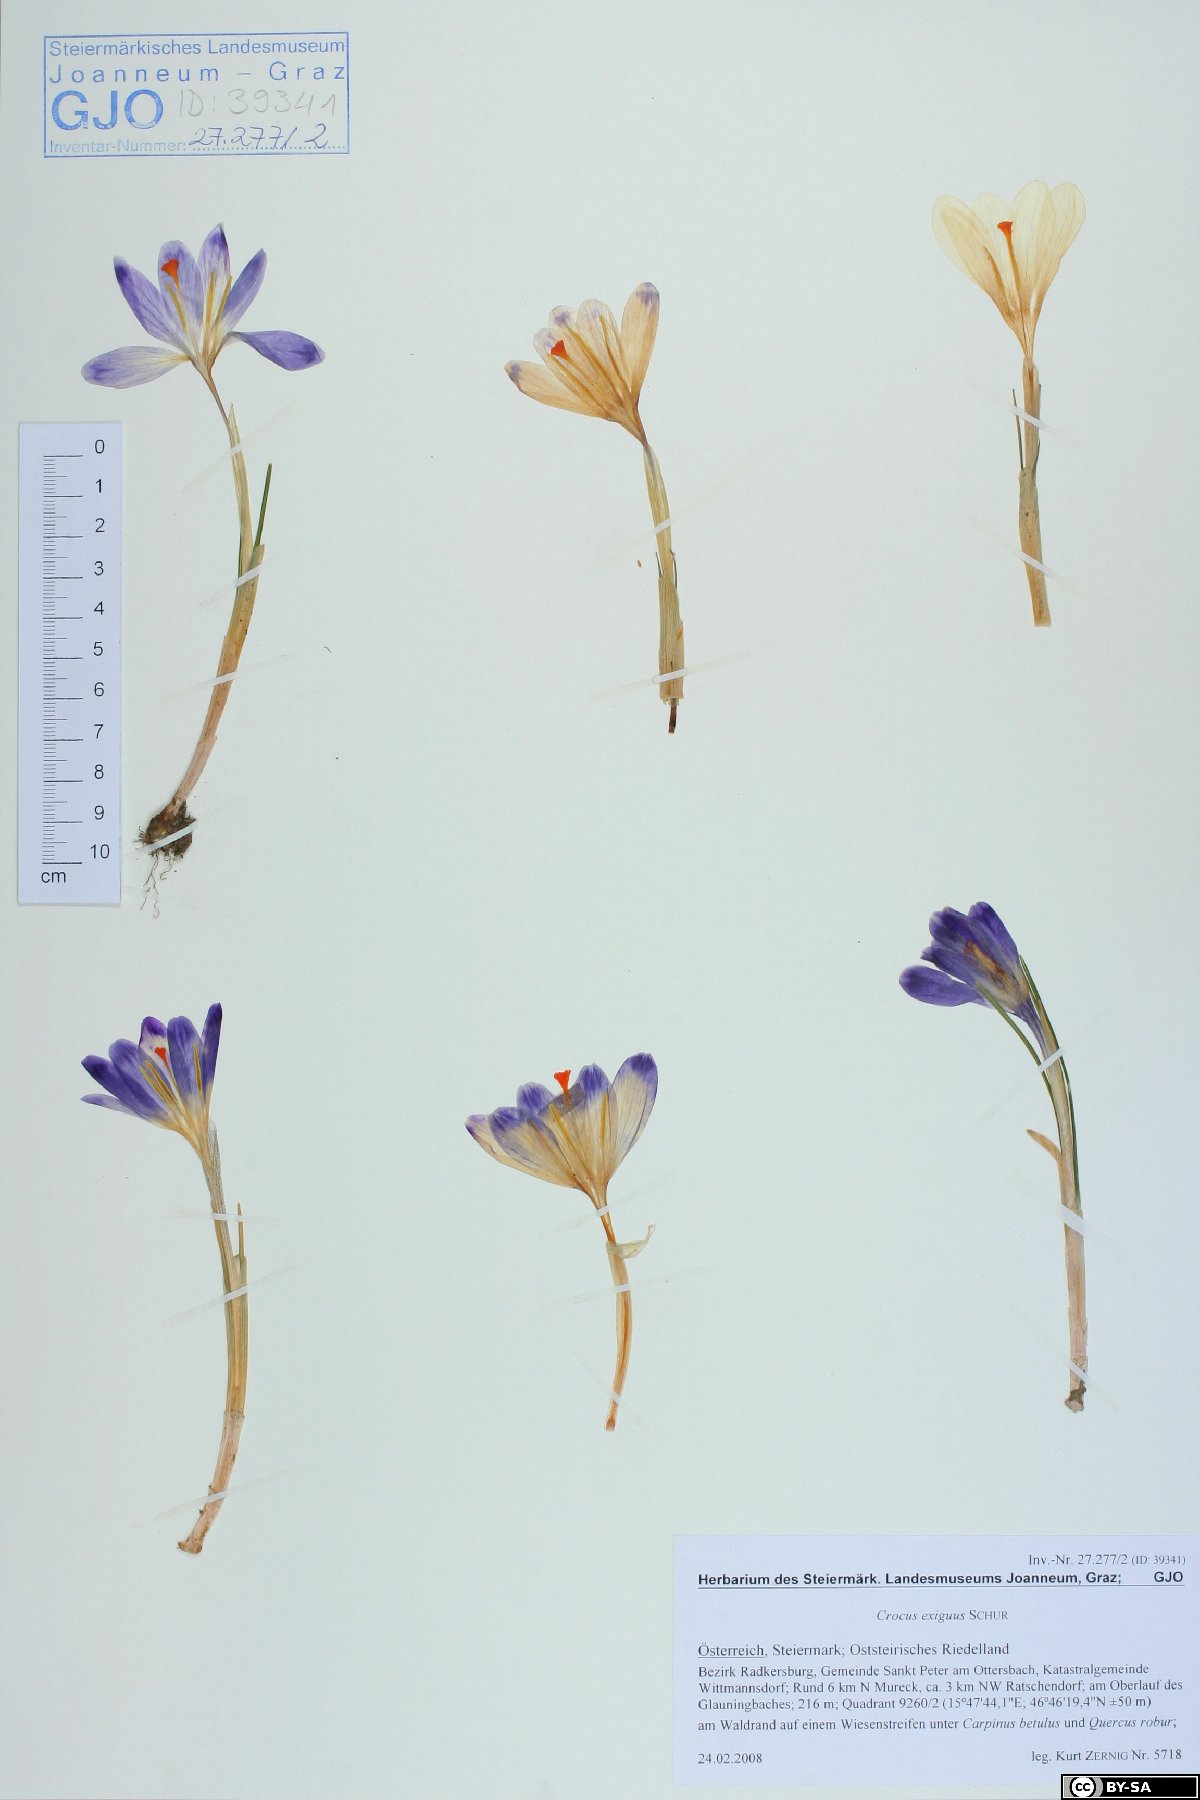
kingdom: Plantae
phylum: Tracheophyta
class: Liliopsida
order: Asparagales
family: Iridaceae
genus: Crocus
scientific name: Crocus heuffelianus
